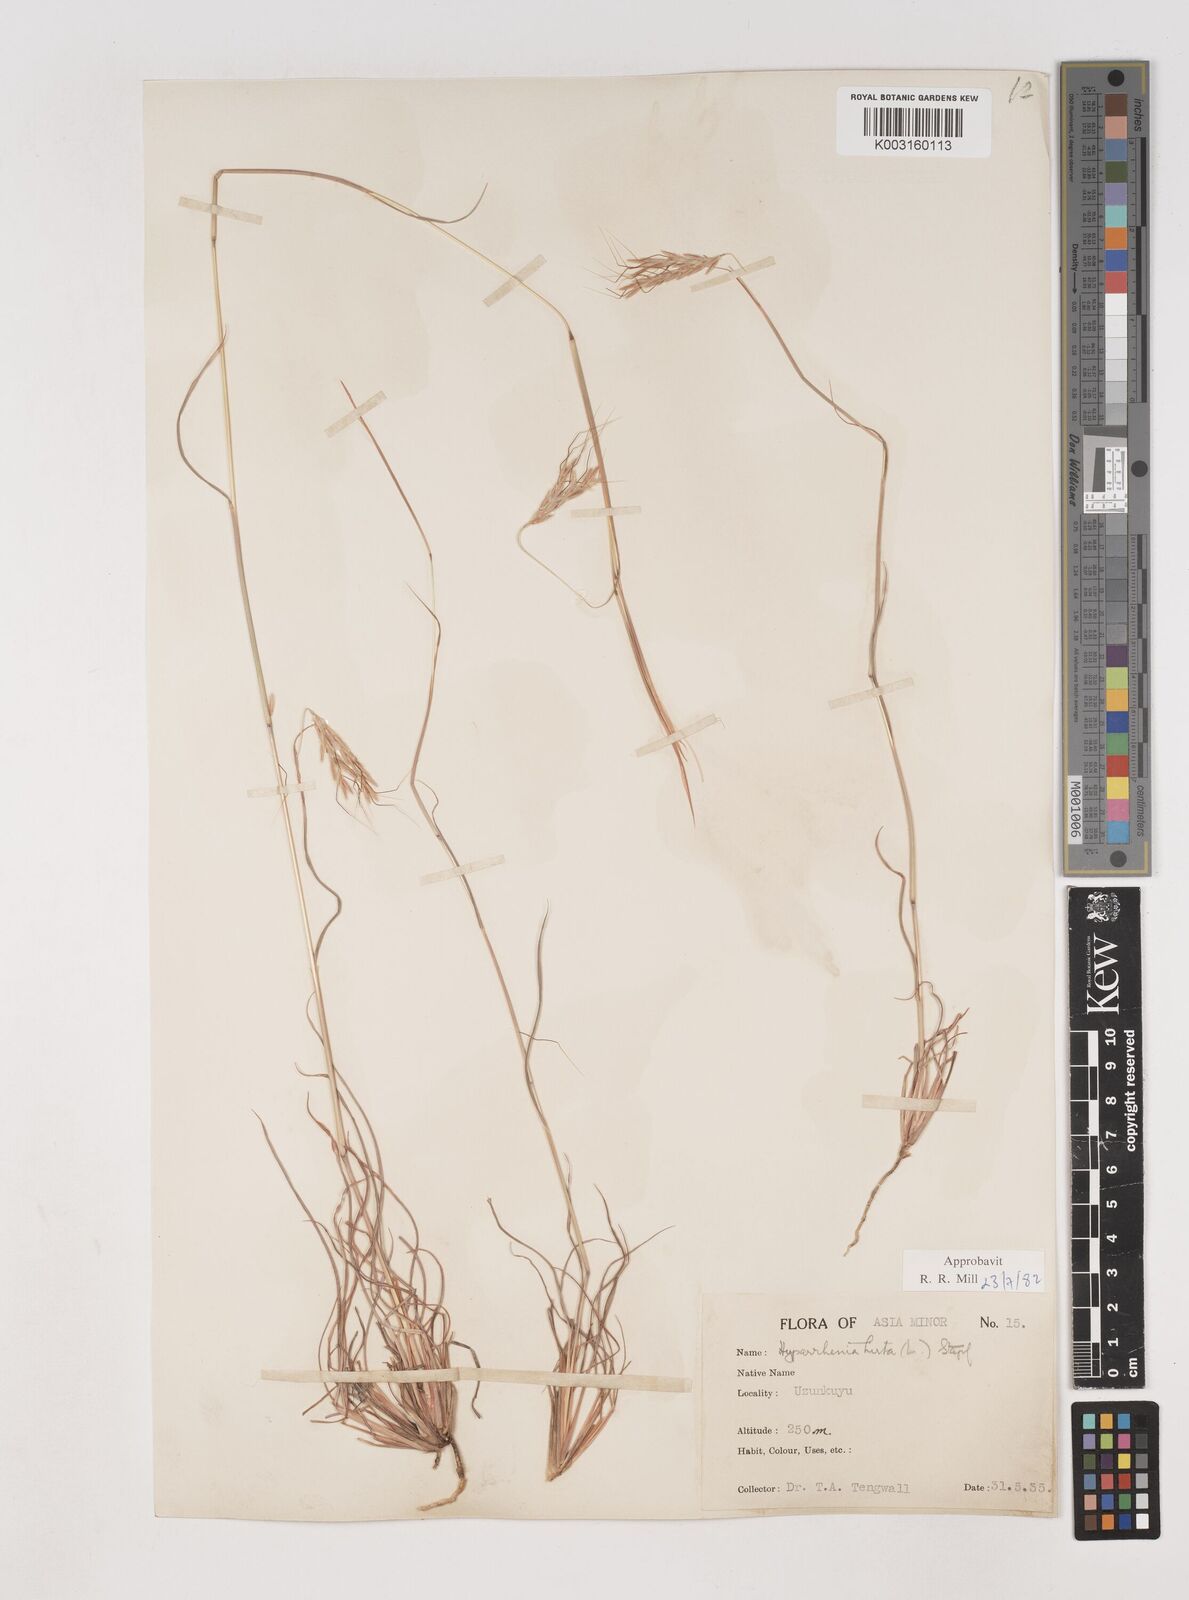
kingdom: Plantae
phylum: Tracheophyta
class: Liliopsida
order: Poales
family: Poaceae
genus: Hyparrhenia
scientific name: Hyparrhenia hirta
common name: Thatching grass
